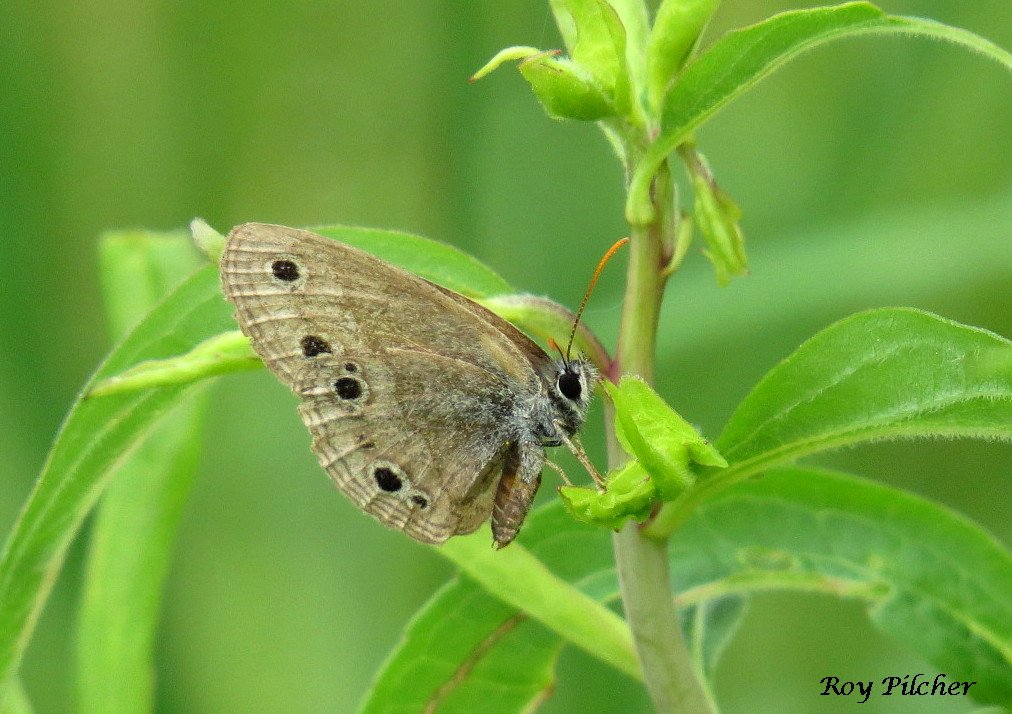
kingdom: Animalia
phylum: Arthropoda
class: Insecta
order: Lepidoptera
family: Nymphalidae
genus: Euptychia
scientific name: Euptychia cymela
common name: Little Wood Satyr
